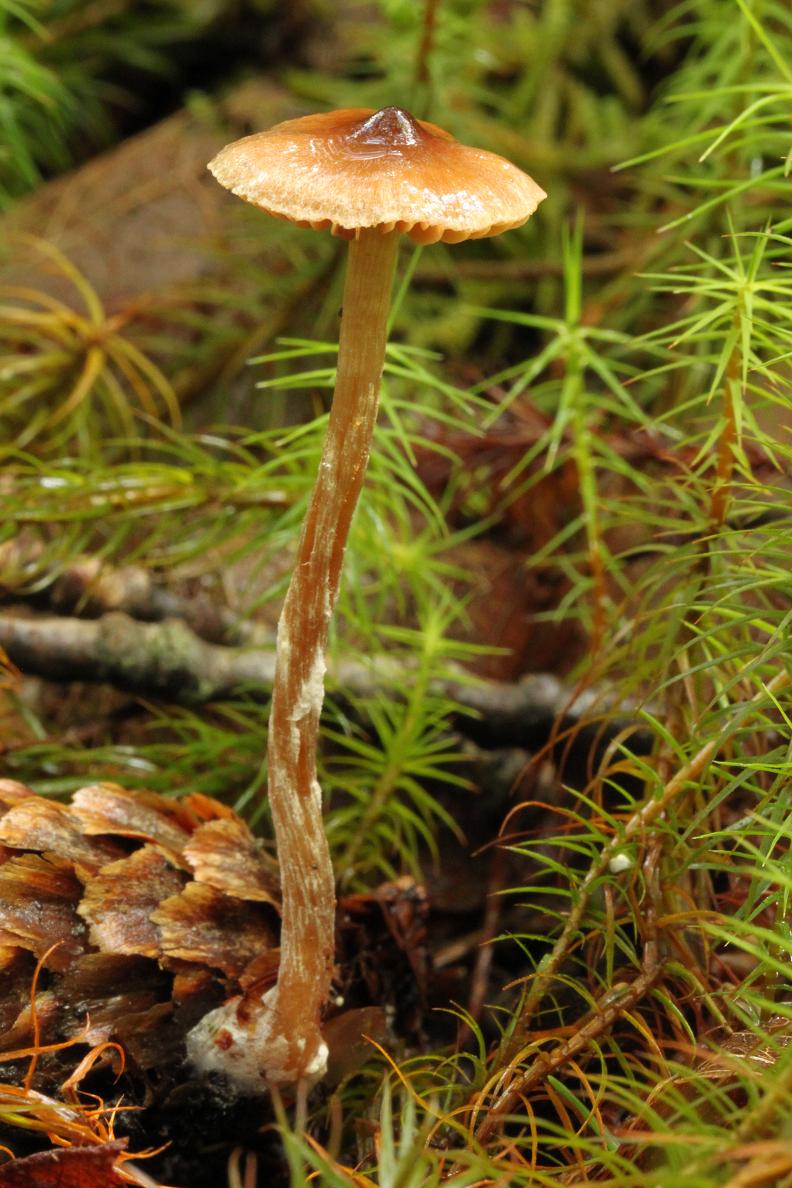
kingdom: Fungi
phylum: Basidiomycota
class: Agaricomycetes
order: Agaricales
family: Cortinariaceae
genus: Cortinarius
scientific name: Cortinarius
